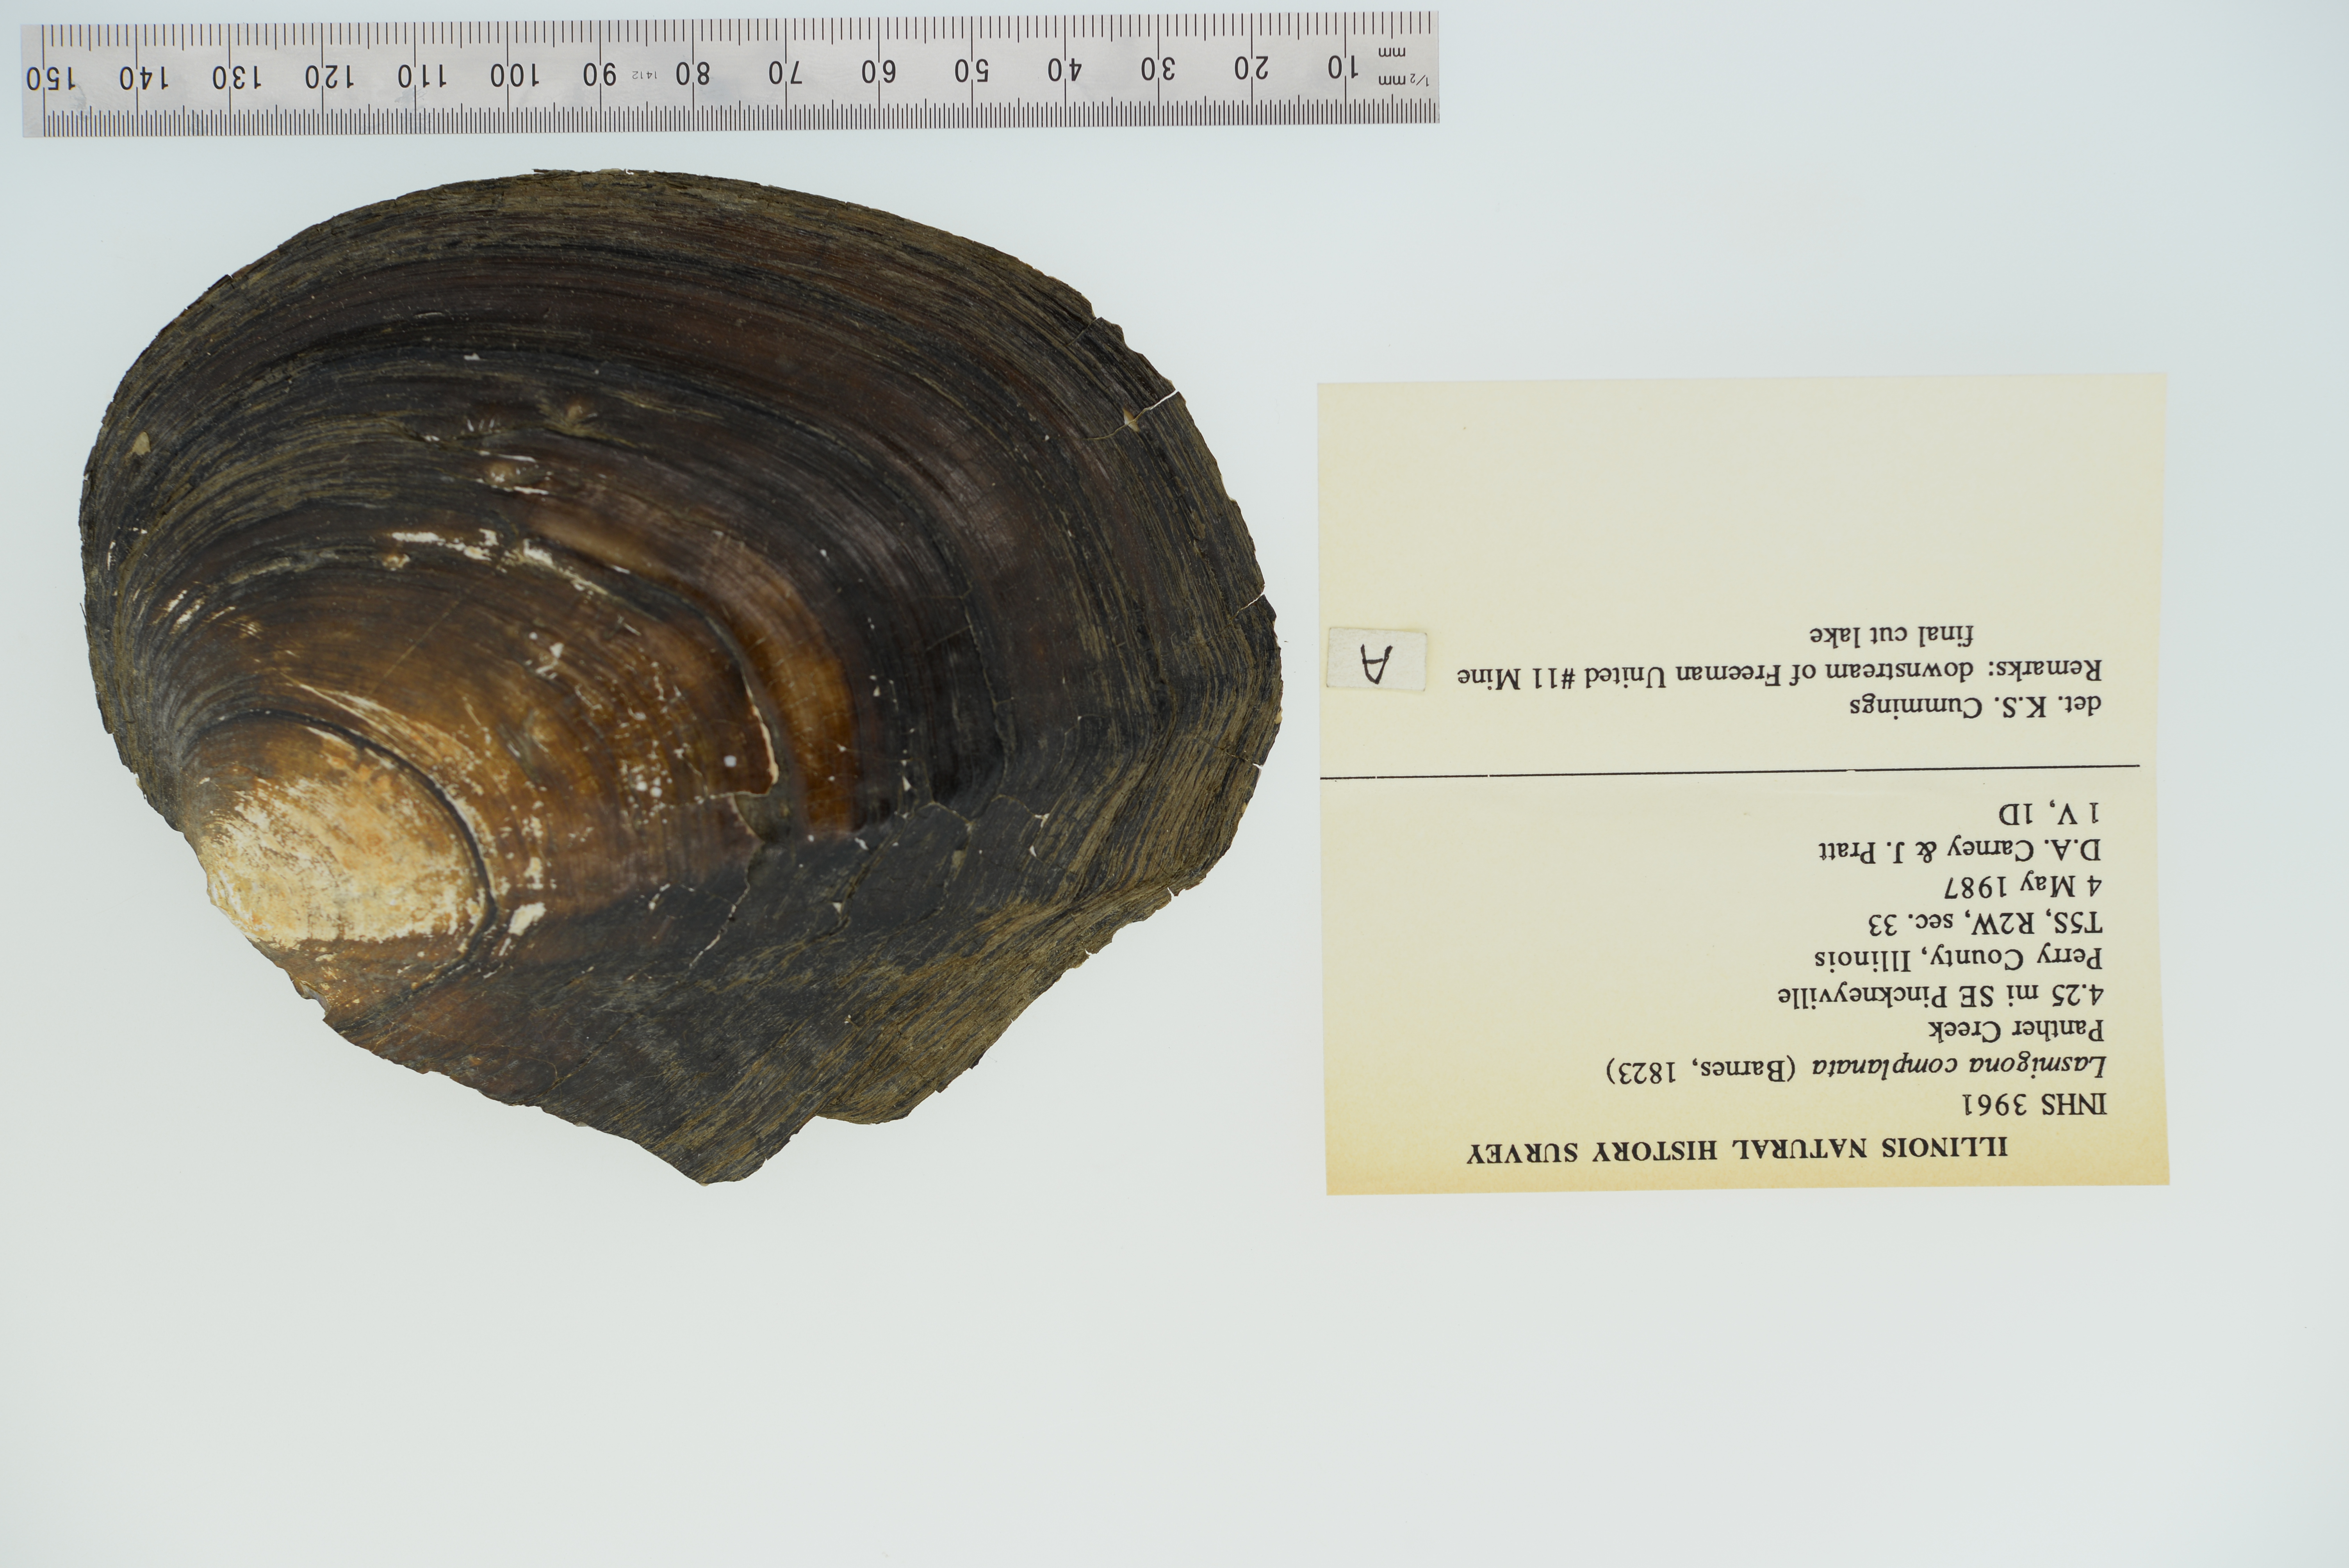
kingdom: Animalia
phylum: Mollusca
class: Bivalvia
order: Unionida
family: Unionidae
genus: Lasmigona
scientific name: Lasmigona complanata
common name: White heelsplitter
